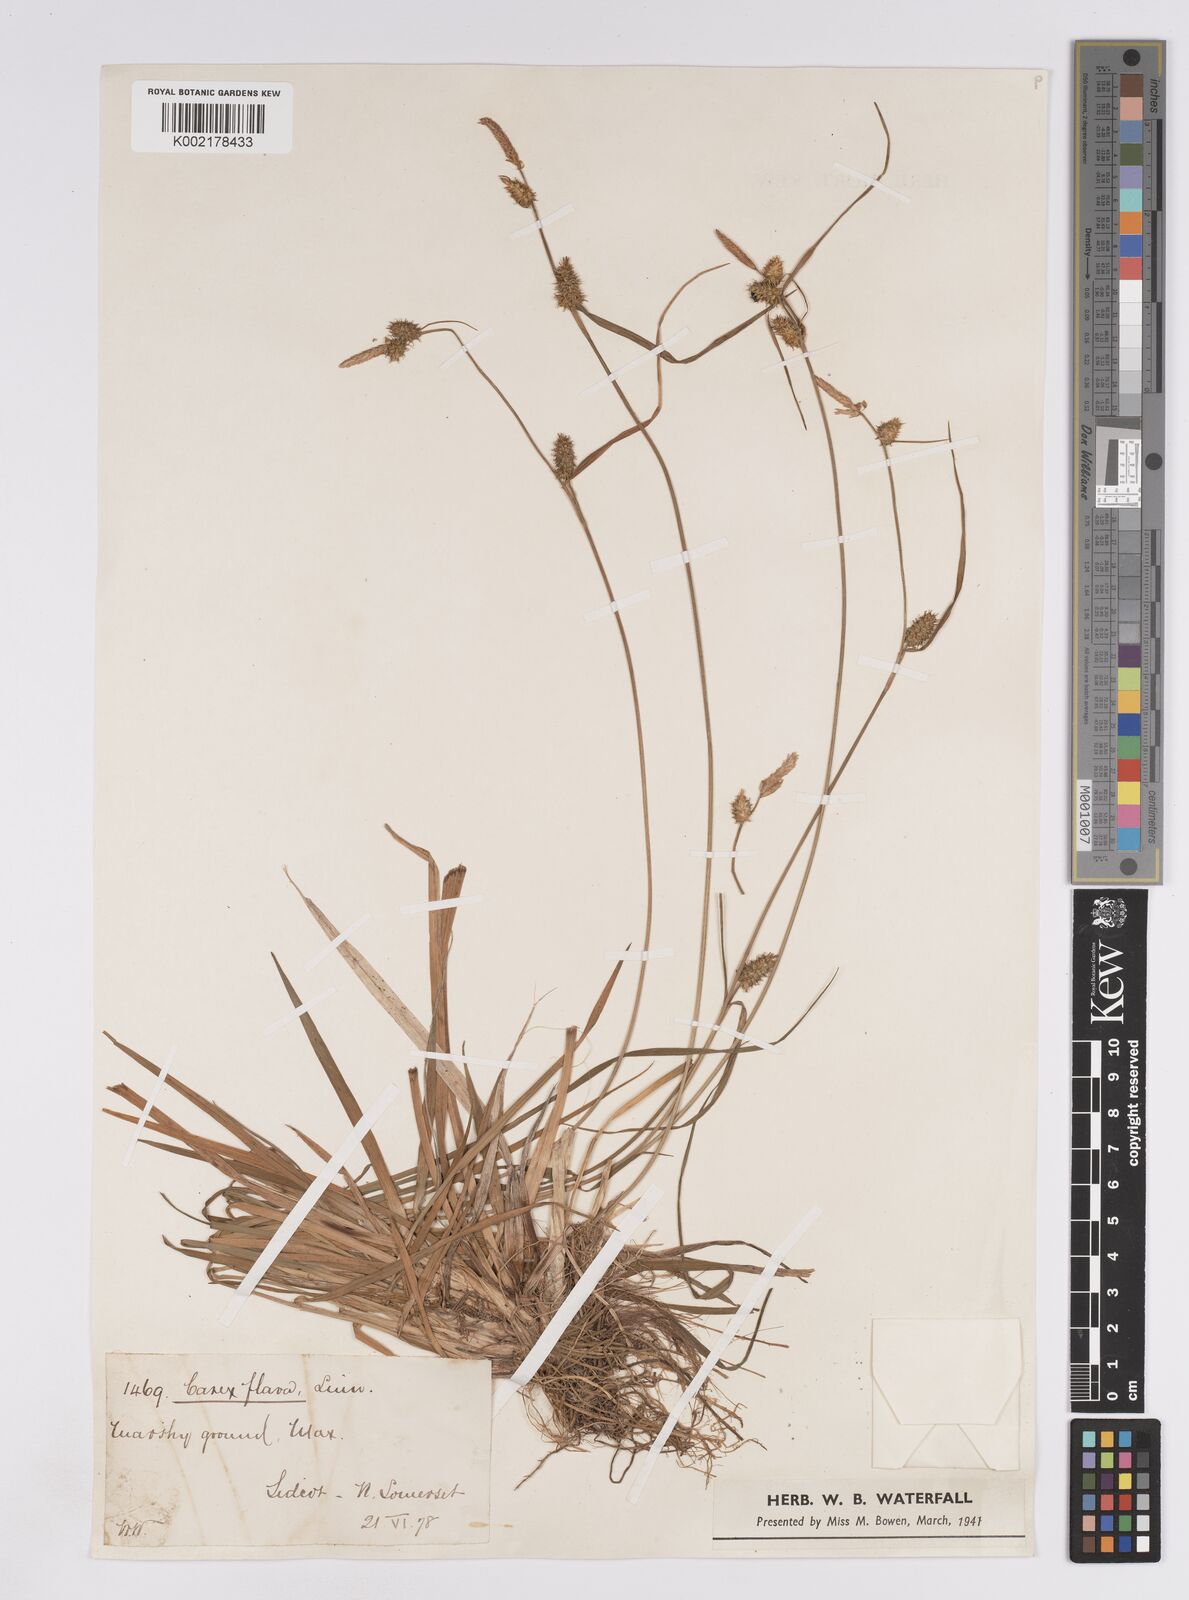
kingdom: Plantae
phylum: Tracheophyta
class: Liliopsida
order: Poales
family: Cyperaceae
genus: Carex
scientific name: Carex lepidocarpa
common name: Long-stalked yellow-sedge
